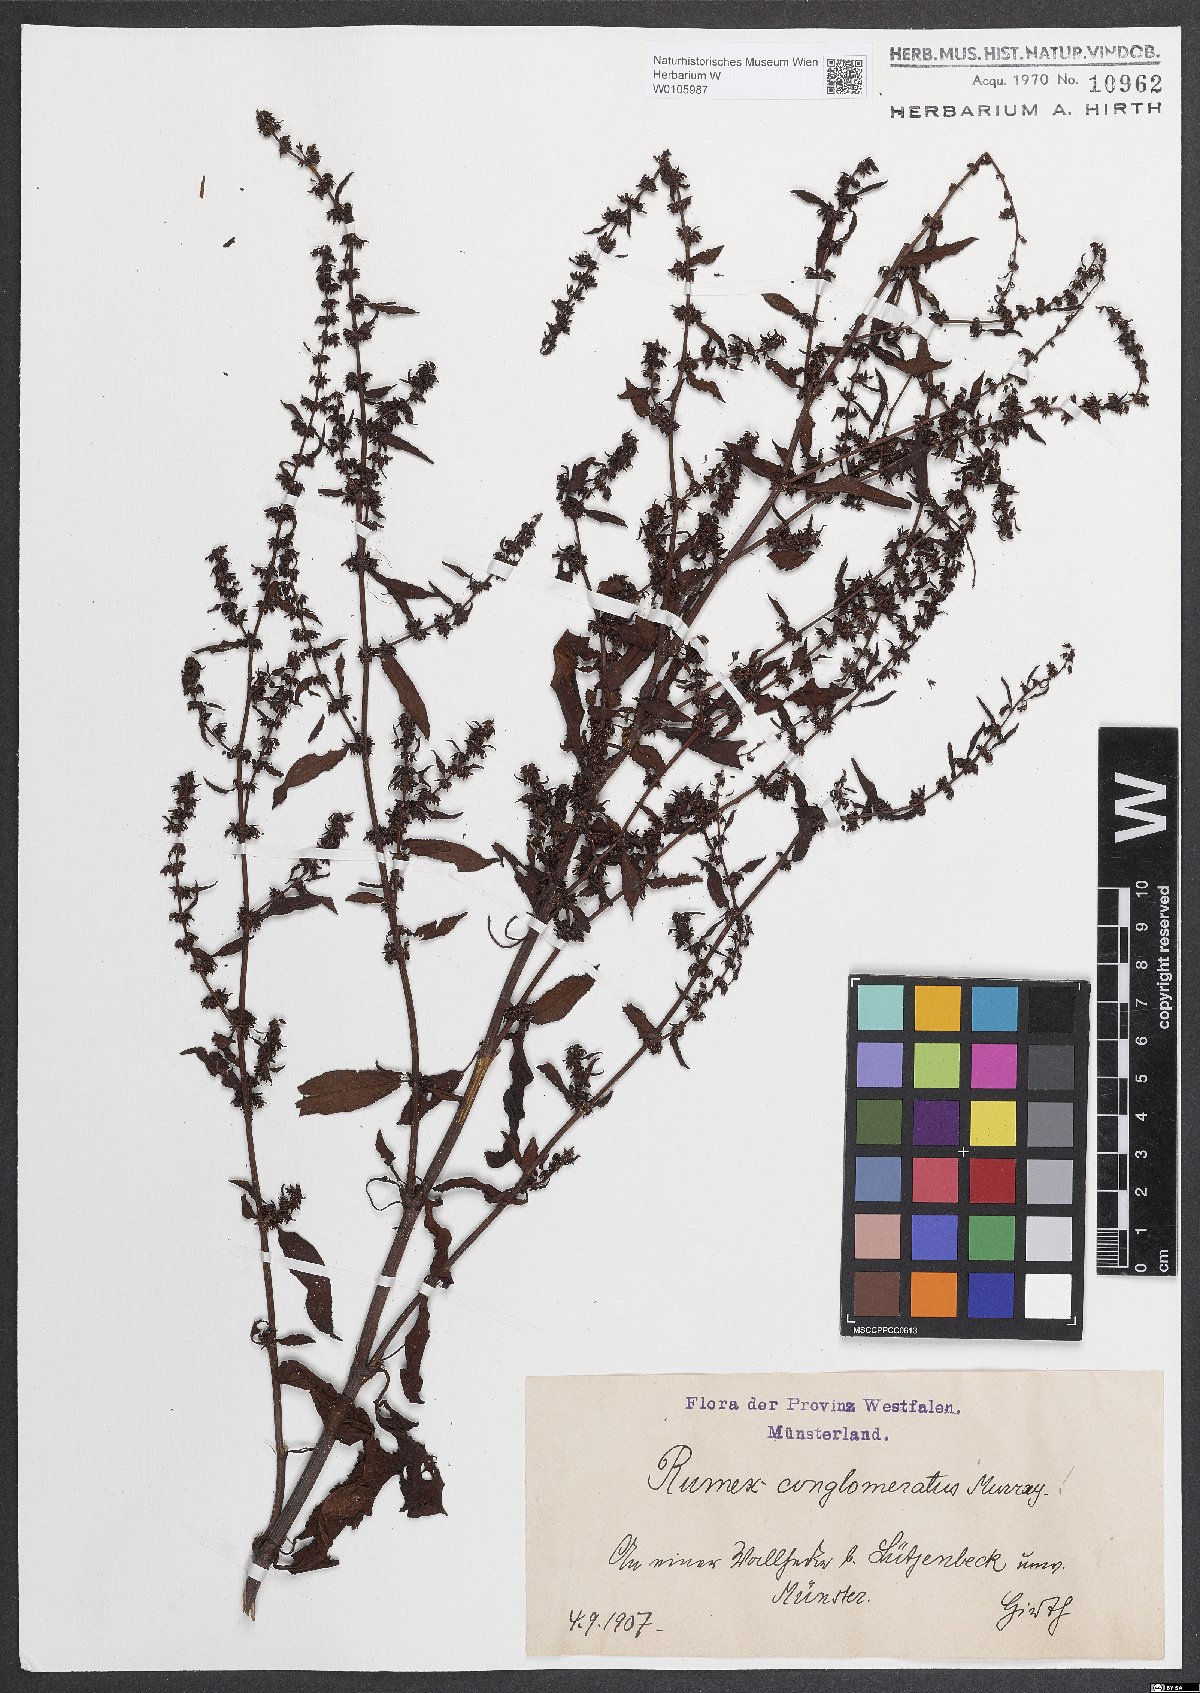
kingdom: Plantae
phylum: Tracheophyta
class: Magnoliopsida
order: Caryophyllales
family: Polygonaceae
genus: Rumex
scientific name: Rumex conglomeratus
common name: Clustered dock
